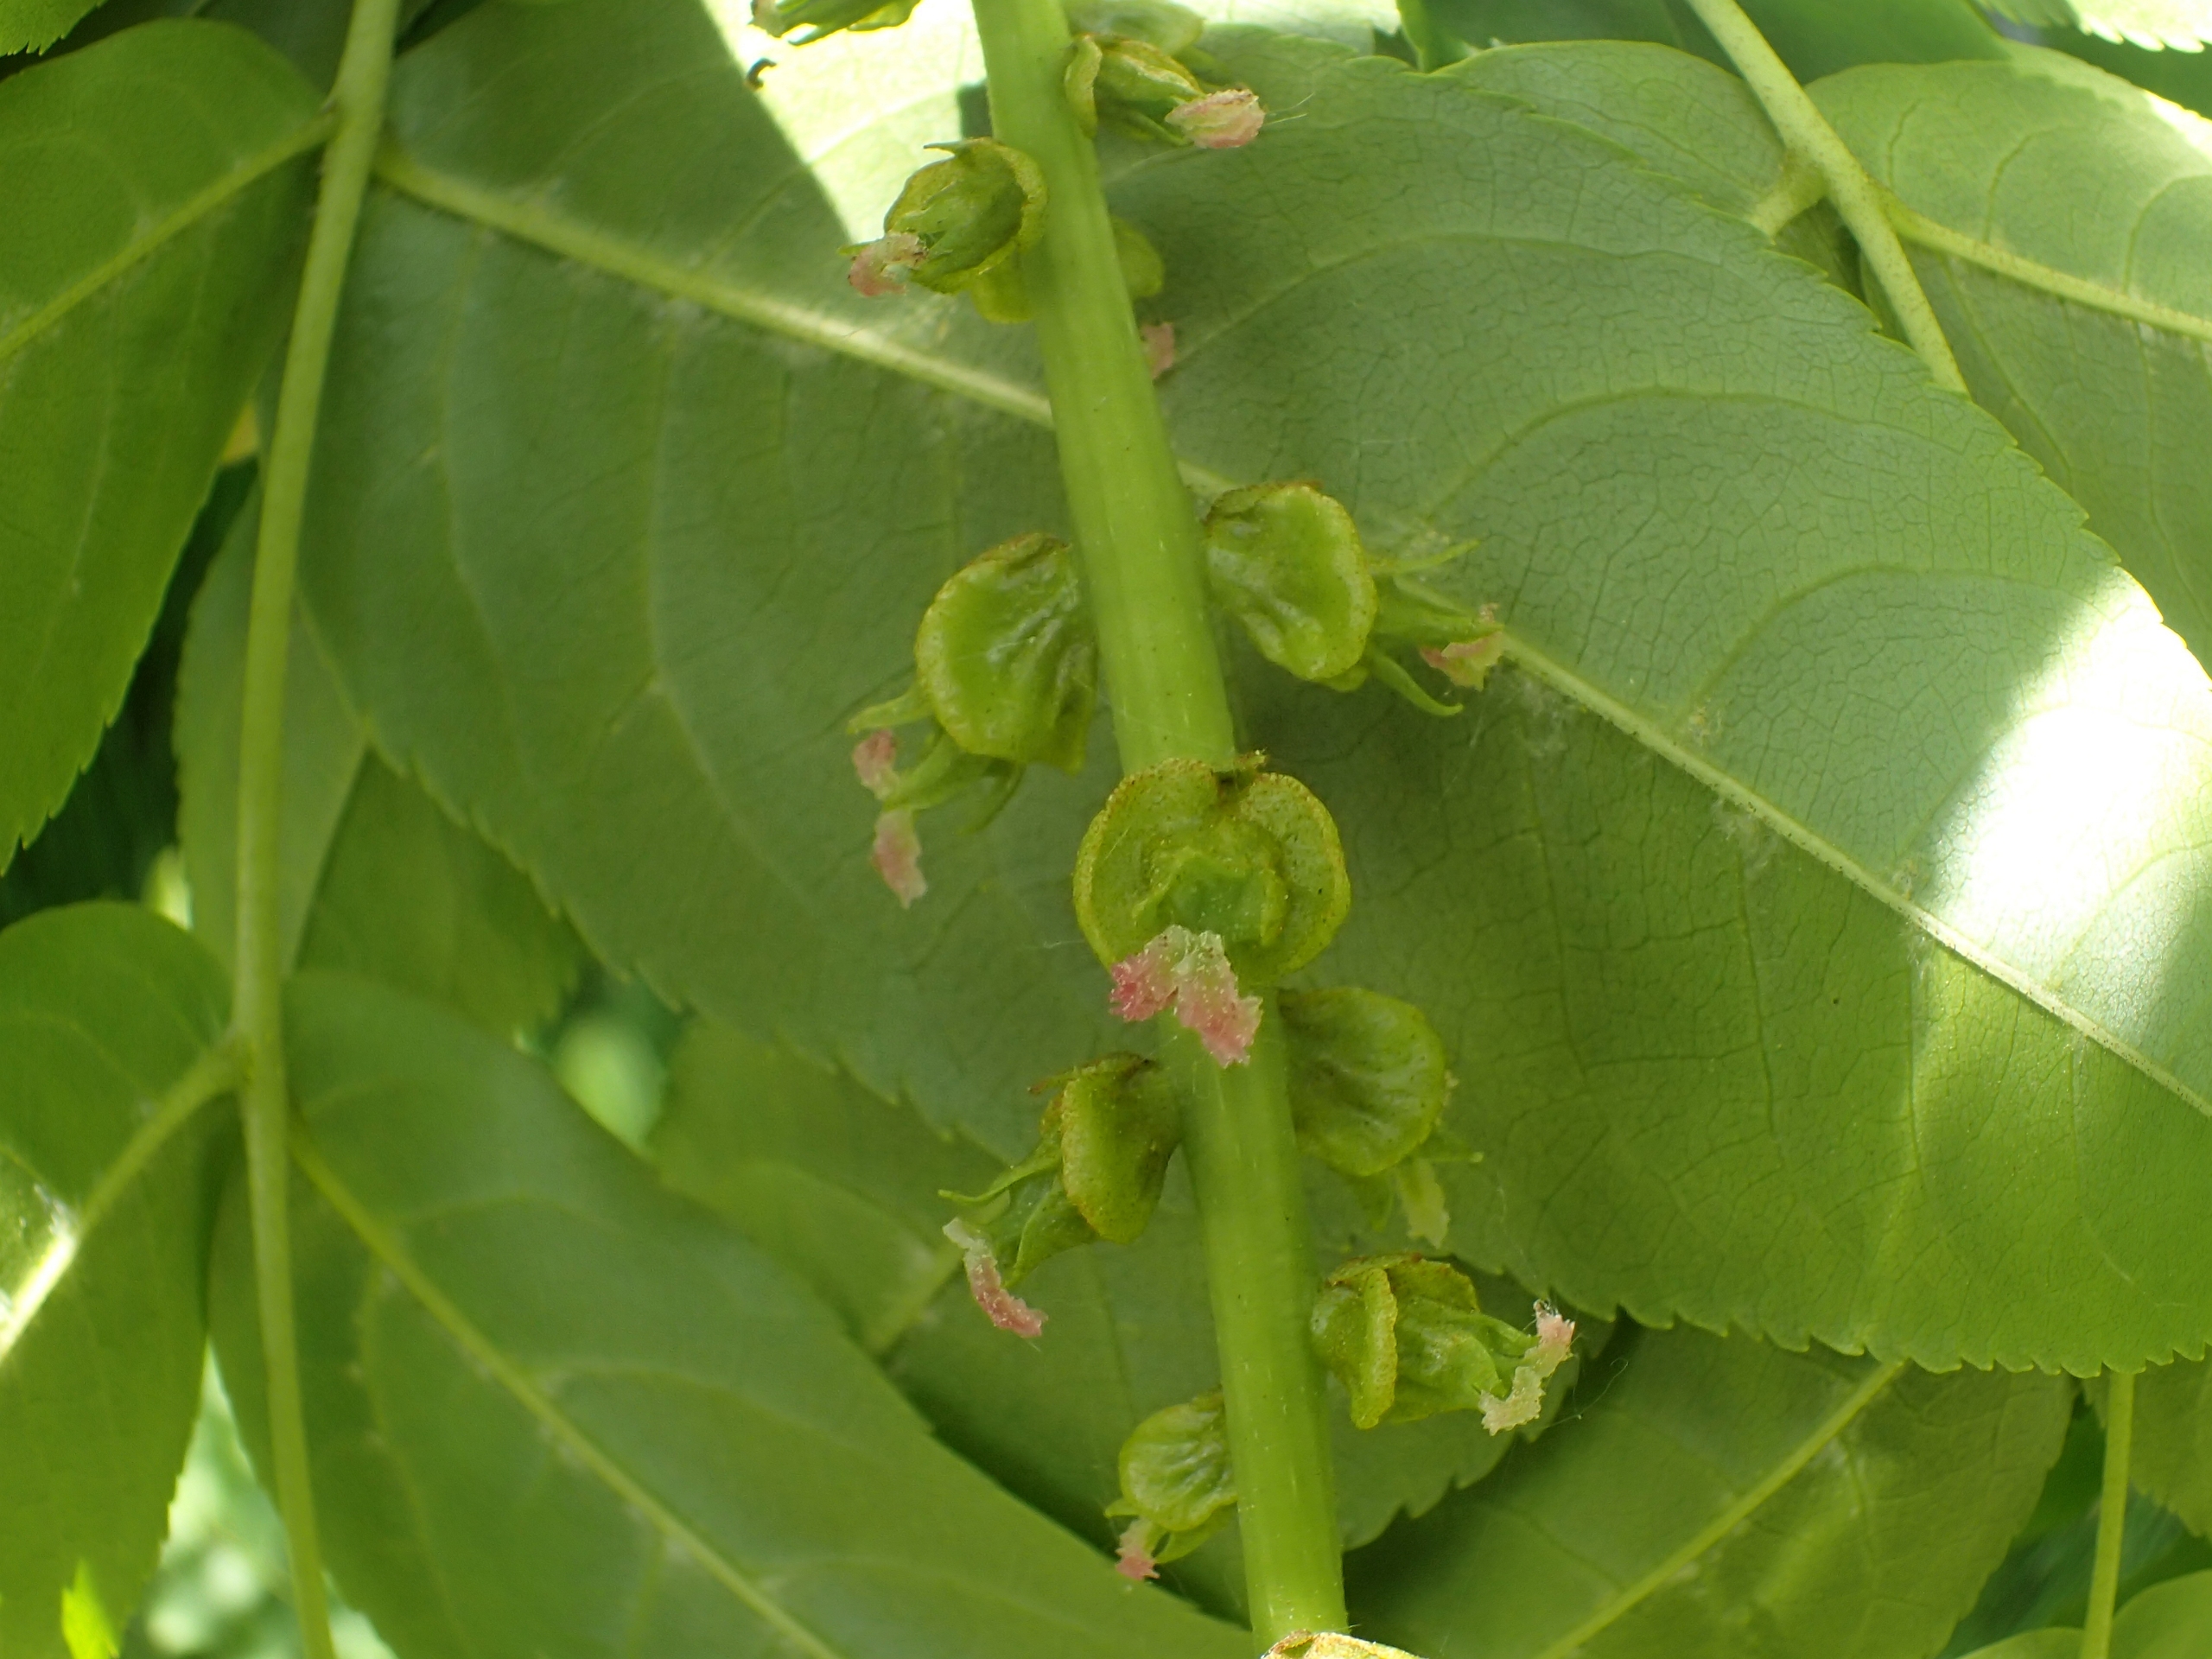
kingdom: Plantae
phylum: Tracheophyta
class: Magnoliopsida
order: Fagales
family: Juglandaceae
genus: Pterocarya
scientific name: Pterocarya fraxinifolia
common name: Kaukasisk vingevalnød
